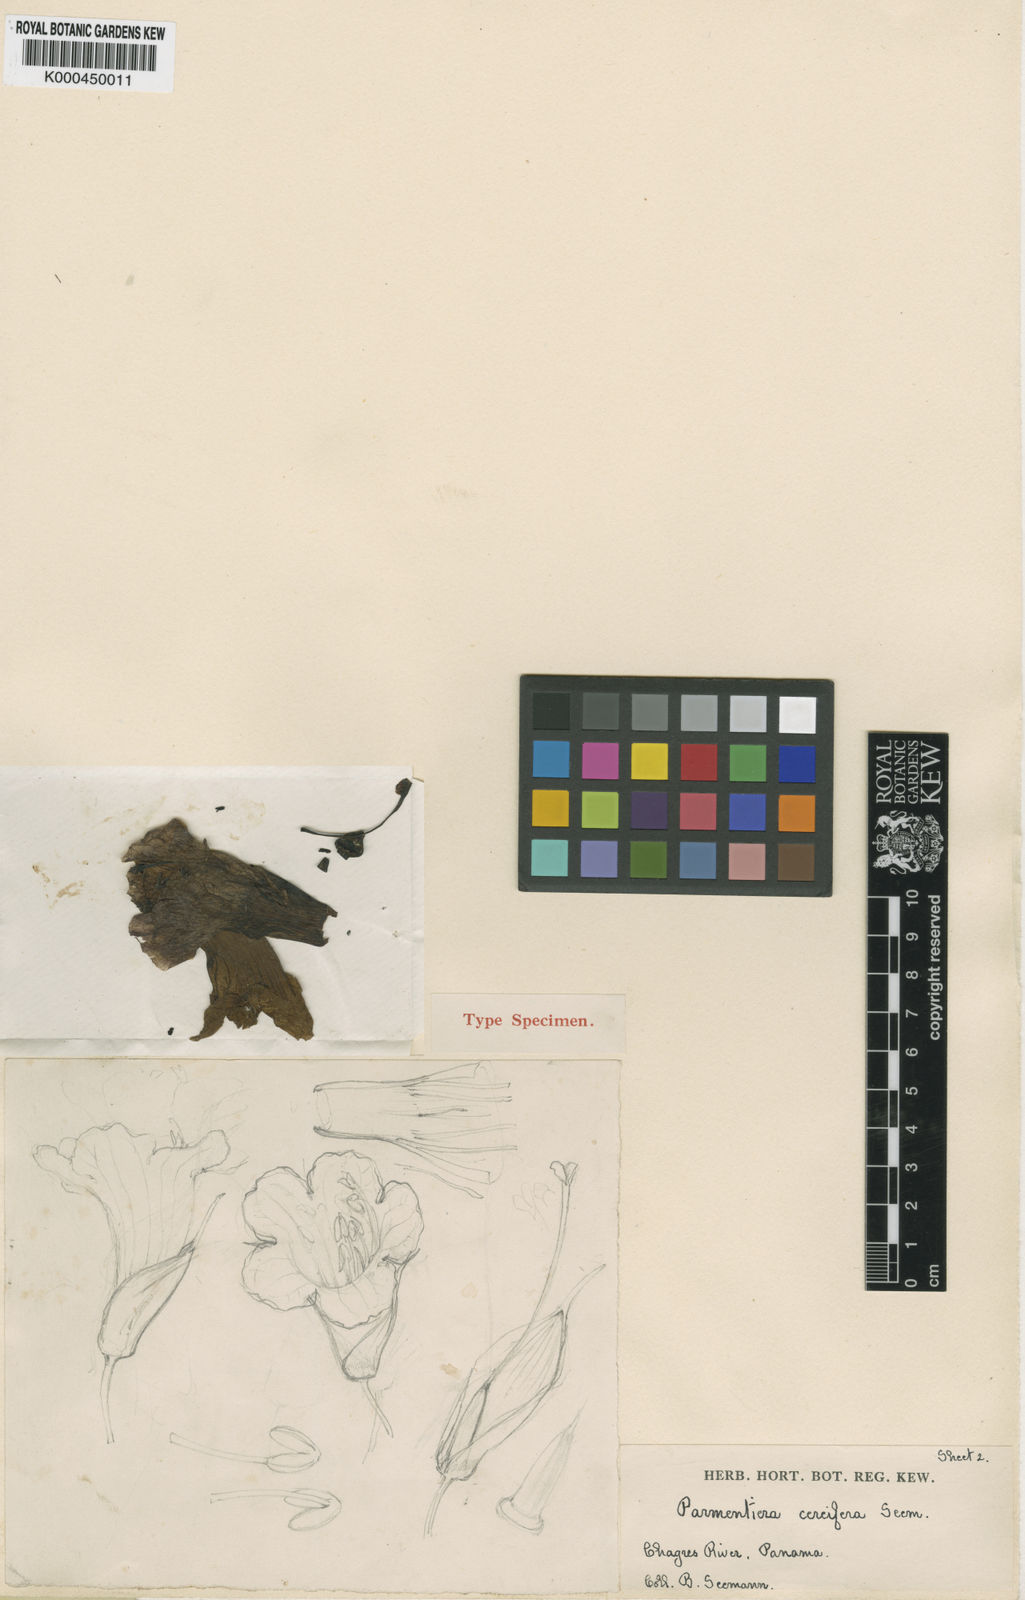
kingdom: Plantae
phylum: Tracheophyta
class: Magnoliopsida
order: Lamiales
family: Bignoniaceae
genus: Parmentiera
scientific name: Parmentiera cereifera
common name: Candletree
